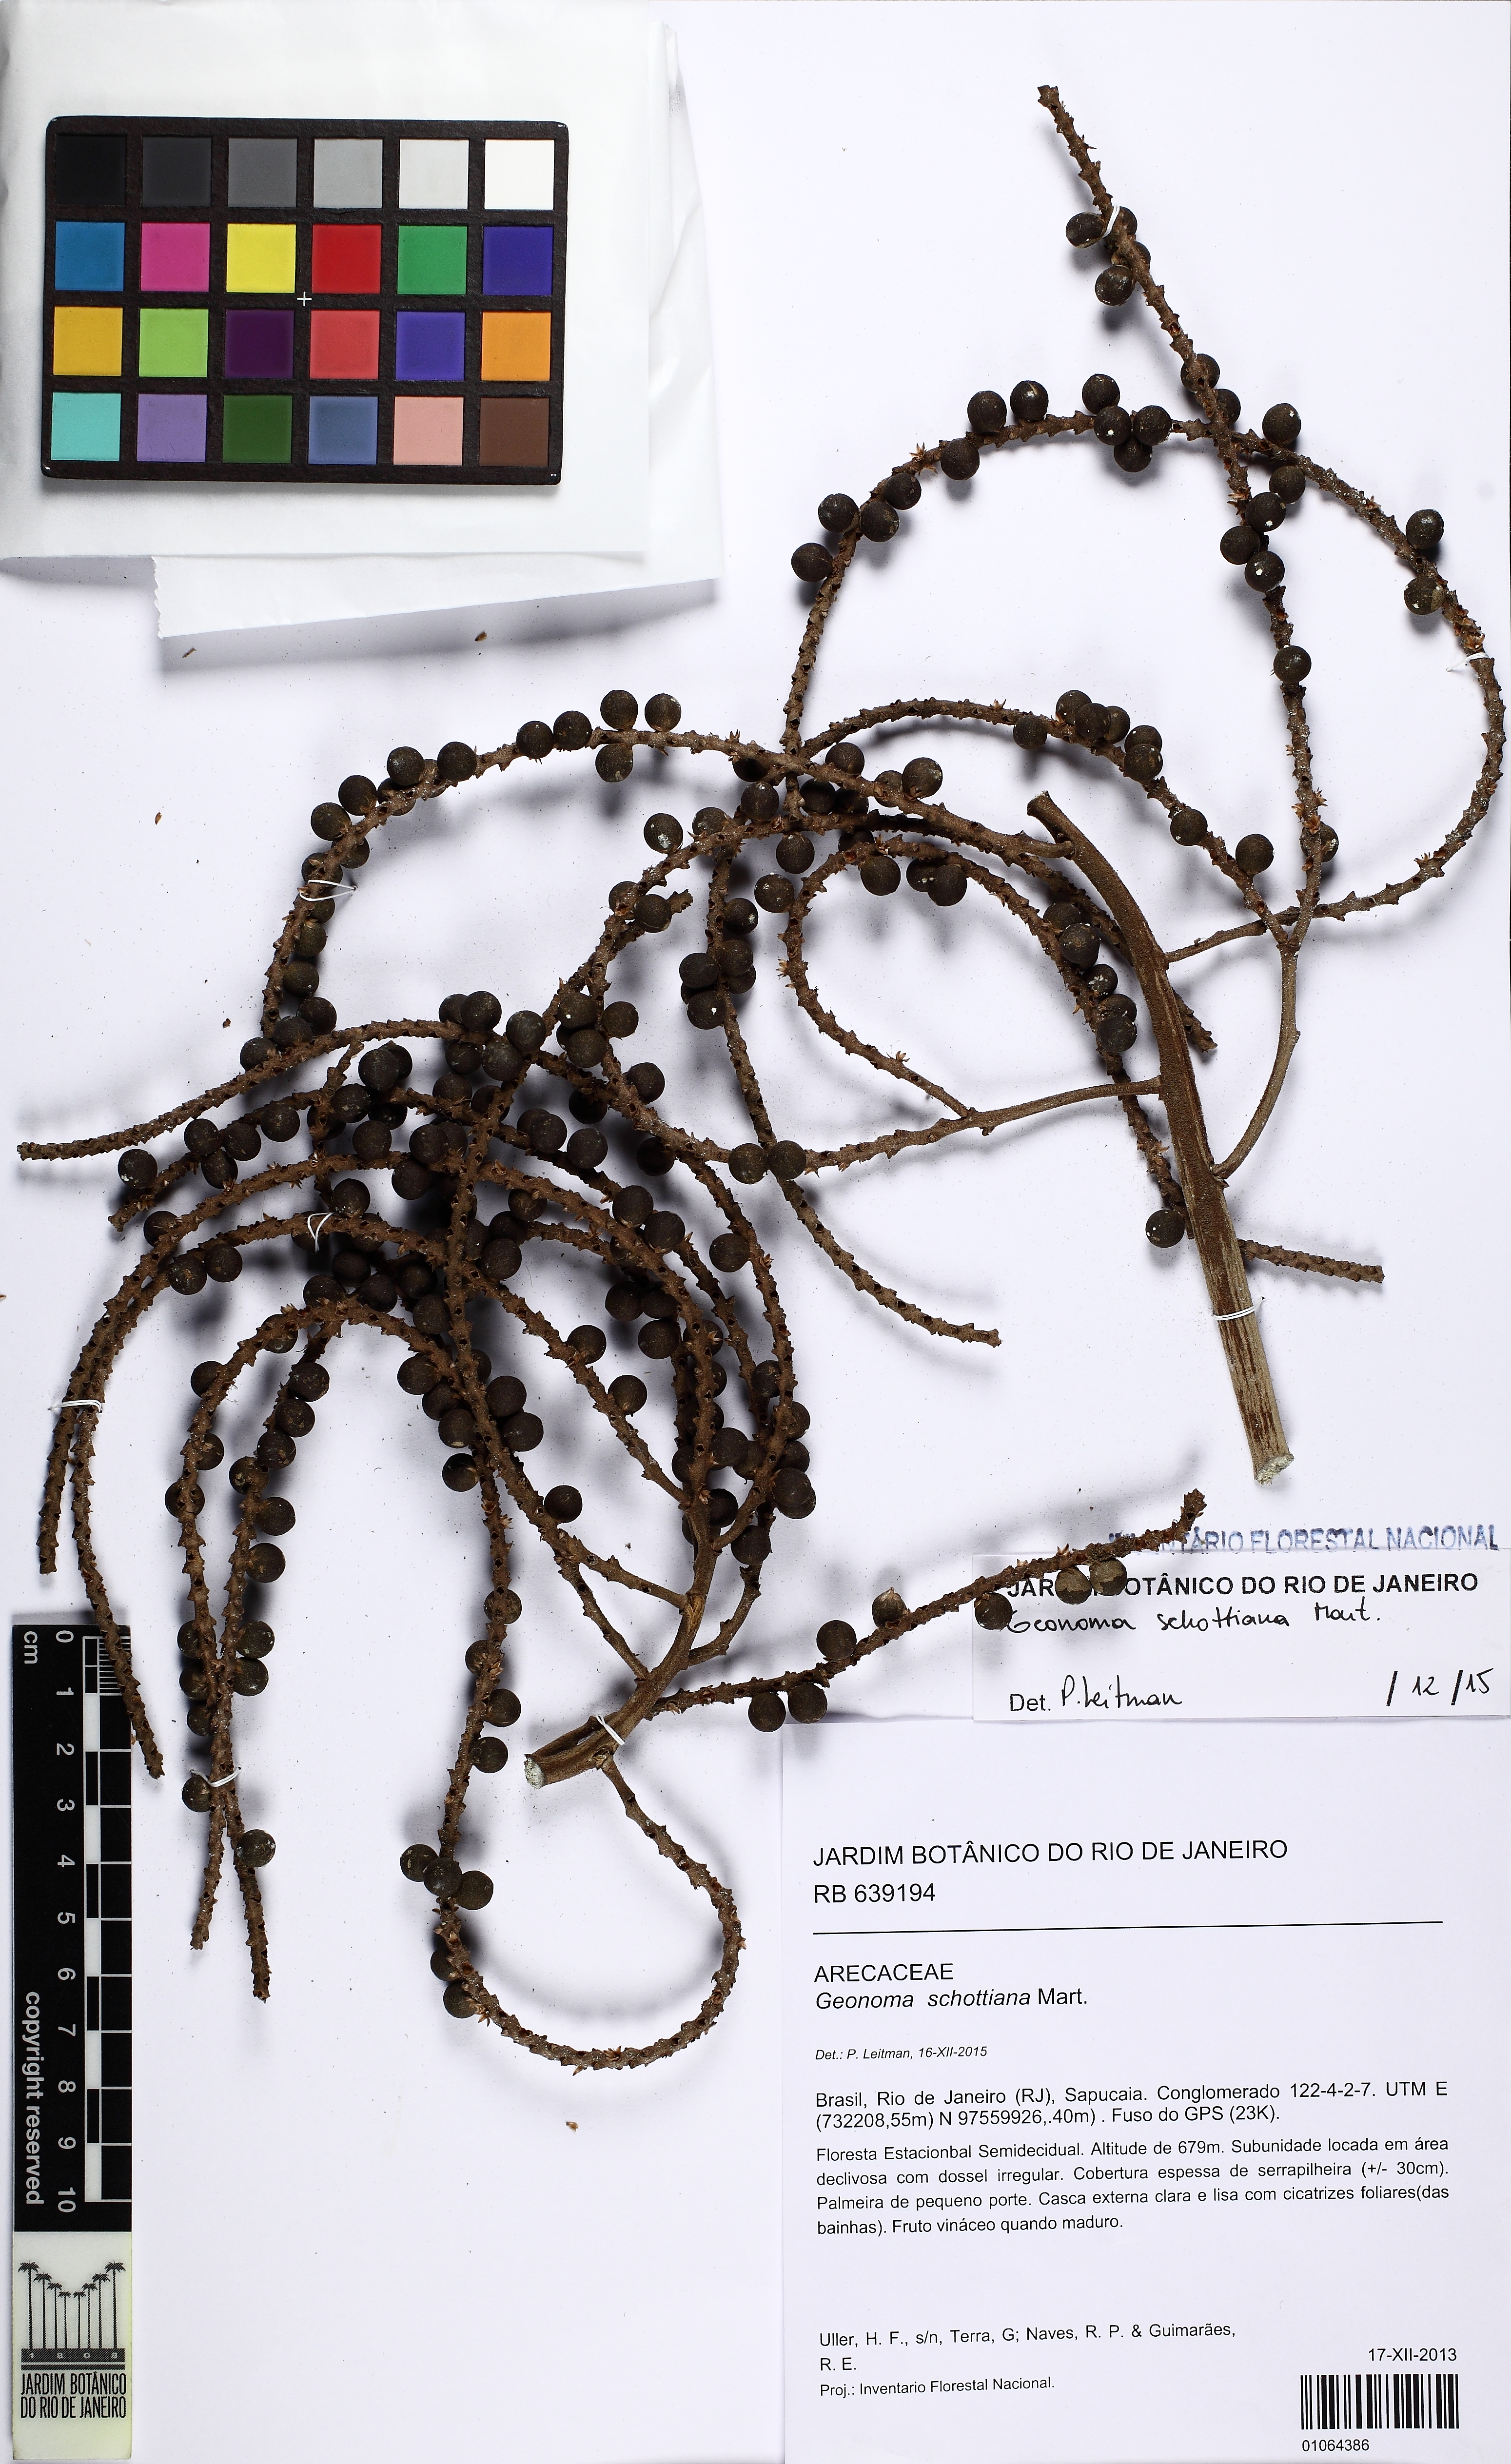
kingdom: Plantae
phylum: Tracheophyta
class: Liliopsida
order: Arecales
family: Arecaceae
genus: Geonoma
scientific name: Geonoma schottiana
